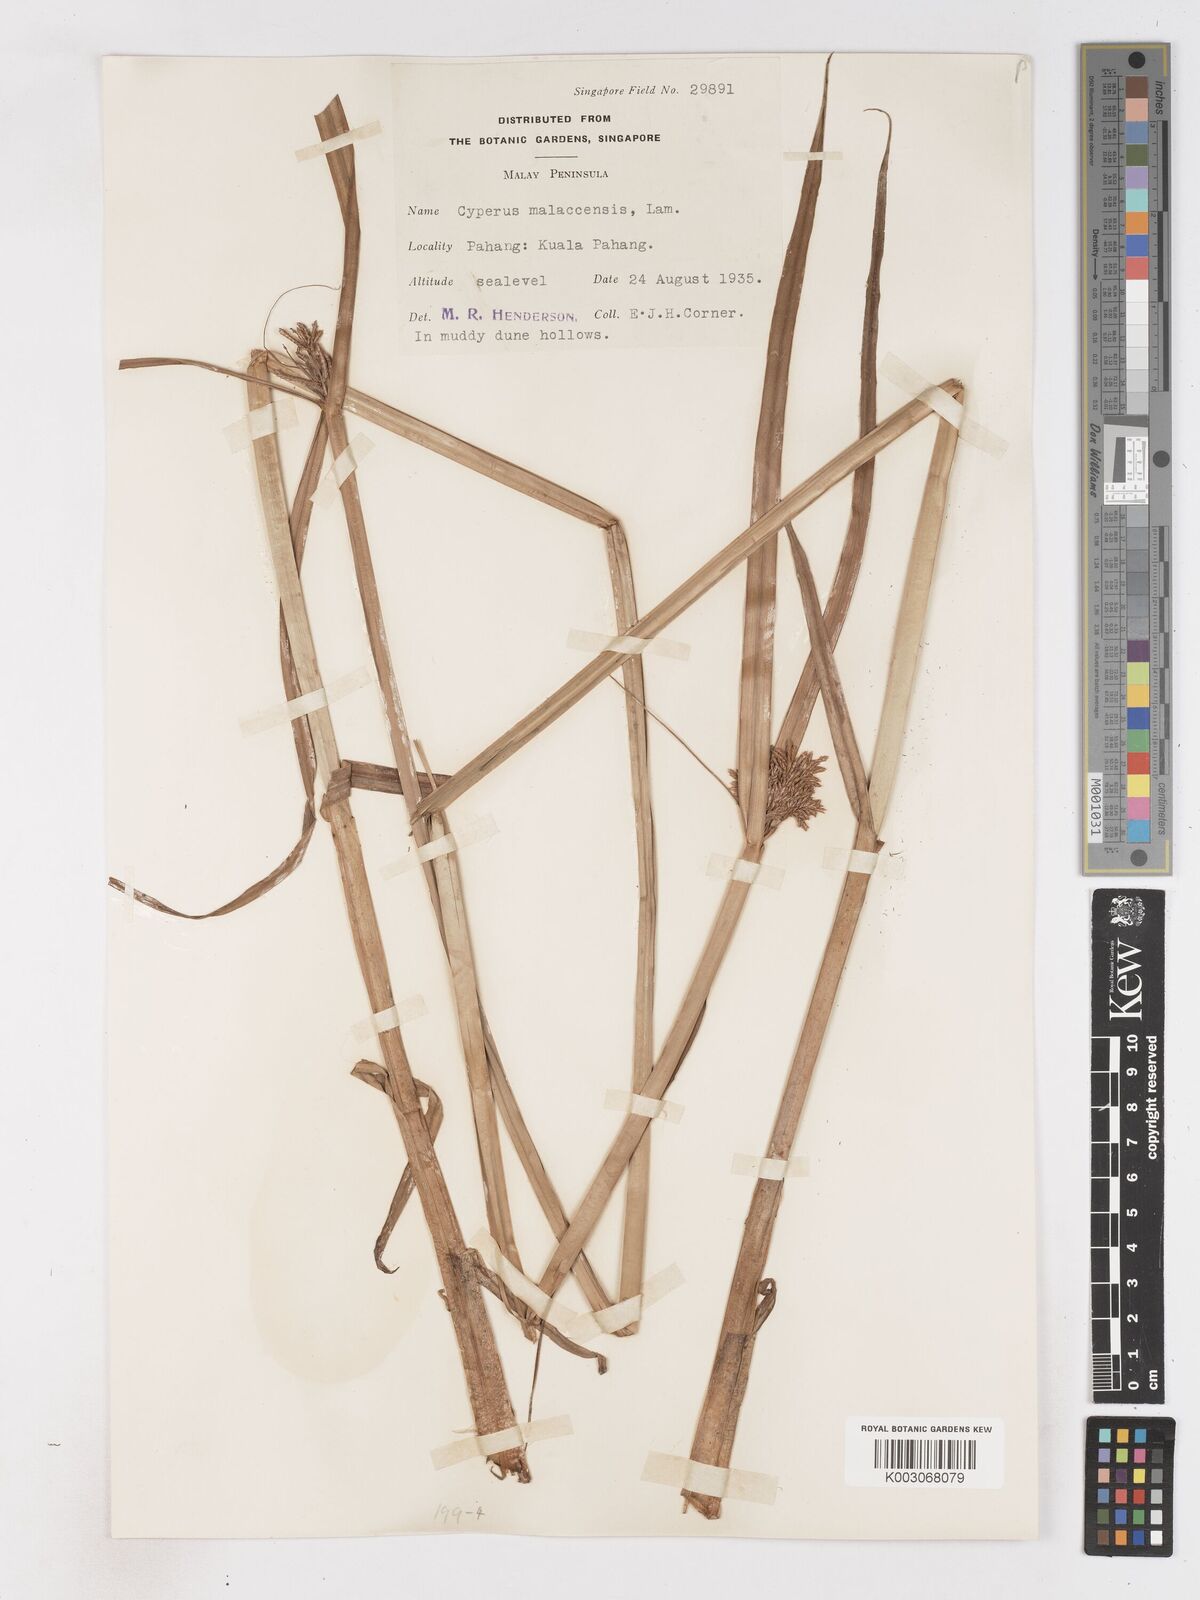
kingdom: Plantae
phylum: Tracheophyta
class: Liliopsida
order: Poales
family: Cyperaceae
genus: Cyperus
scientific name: Cyperus malaccensis
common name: Shichito matgrass
